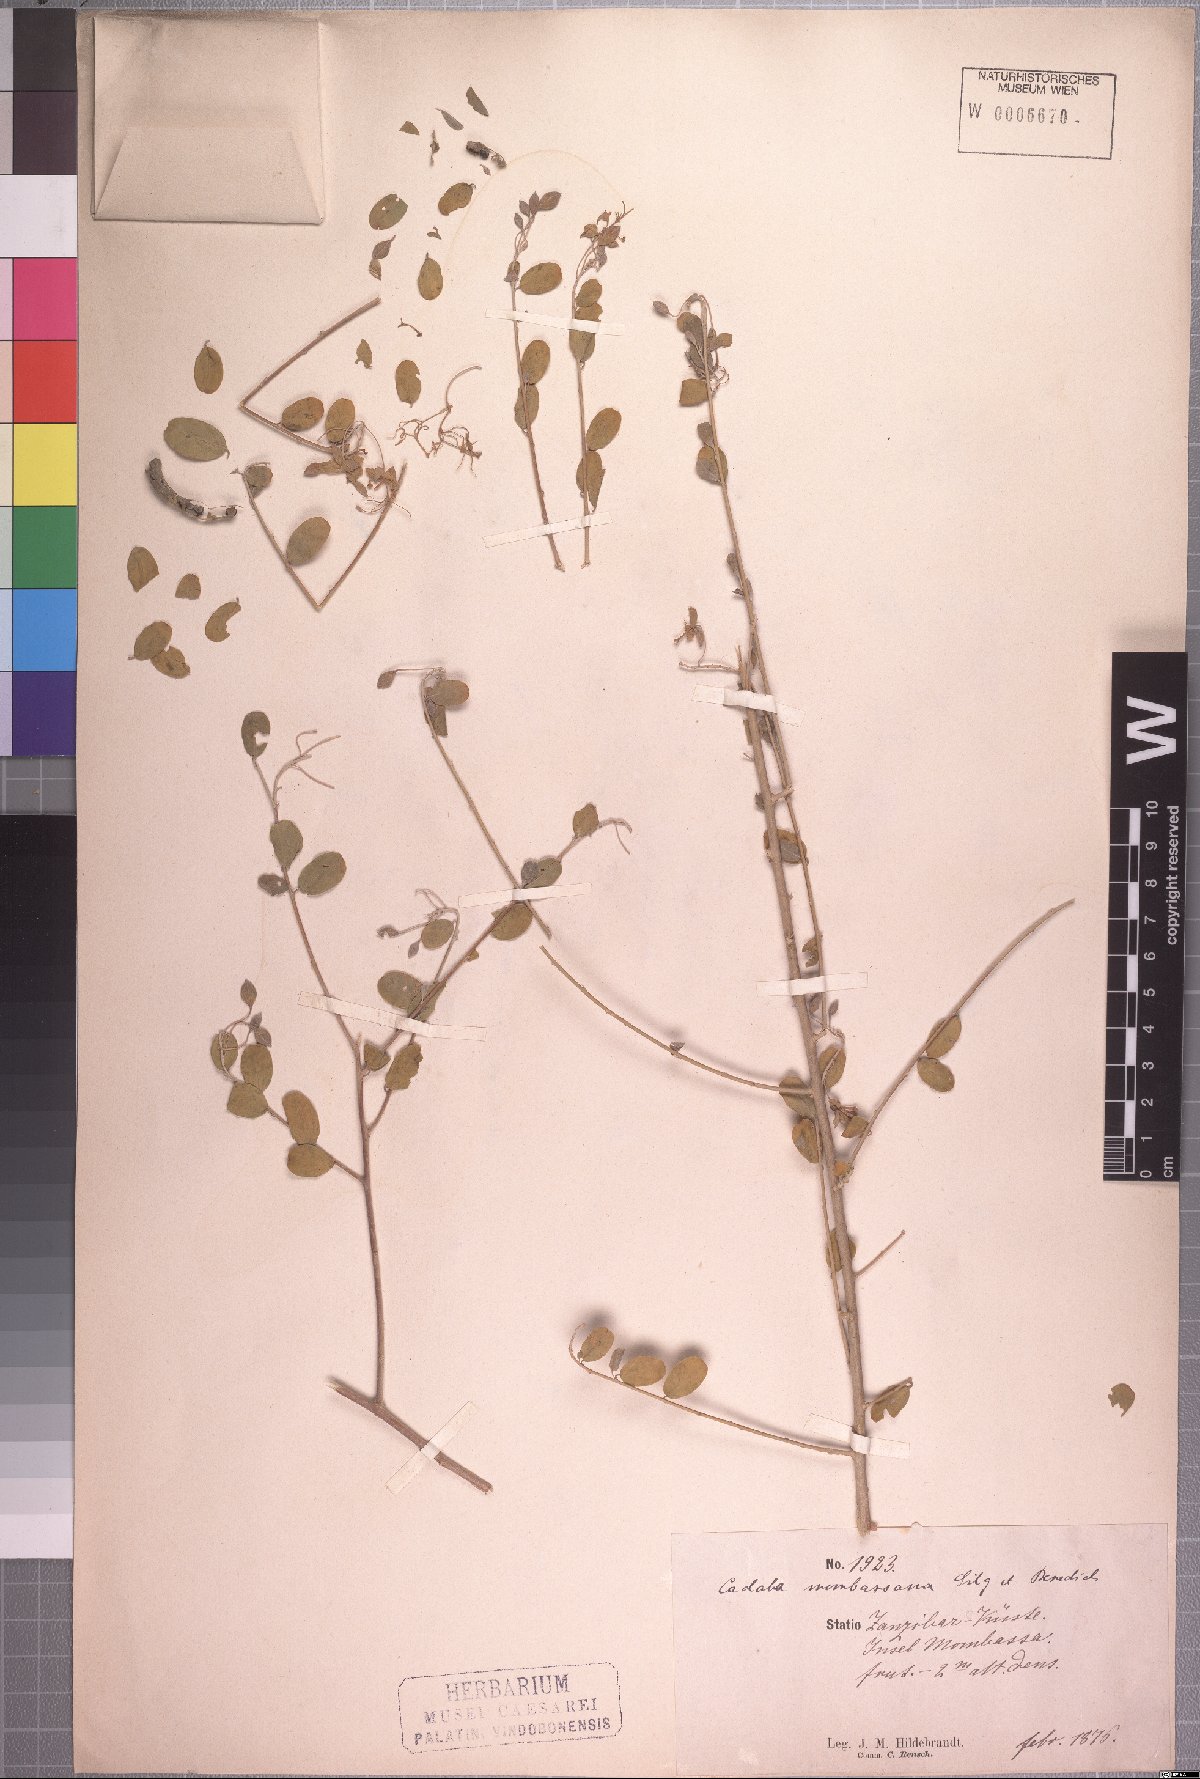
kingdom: Plantae
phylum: Tracheophyta
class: Magnoliopsida
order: Brassicales
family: Capparaceae
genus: Cadaba
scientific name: Cadaba farinosa
